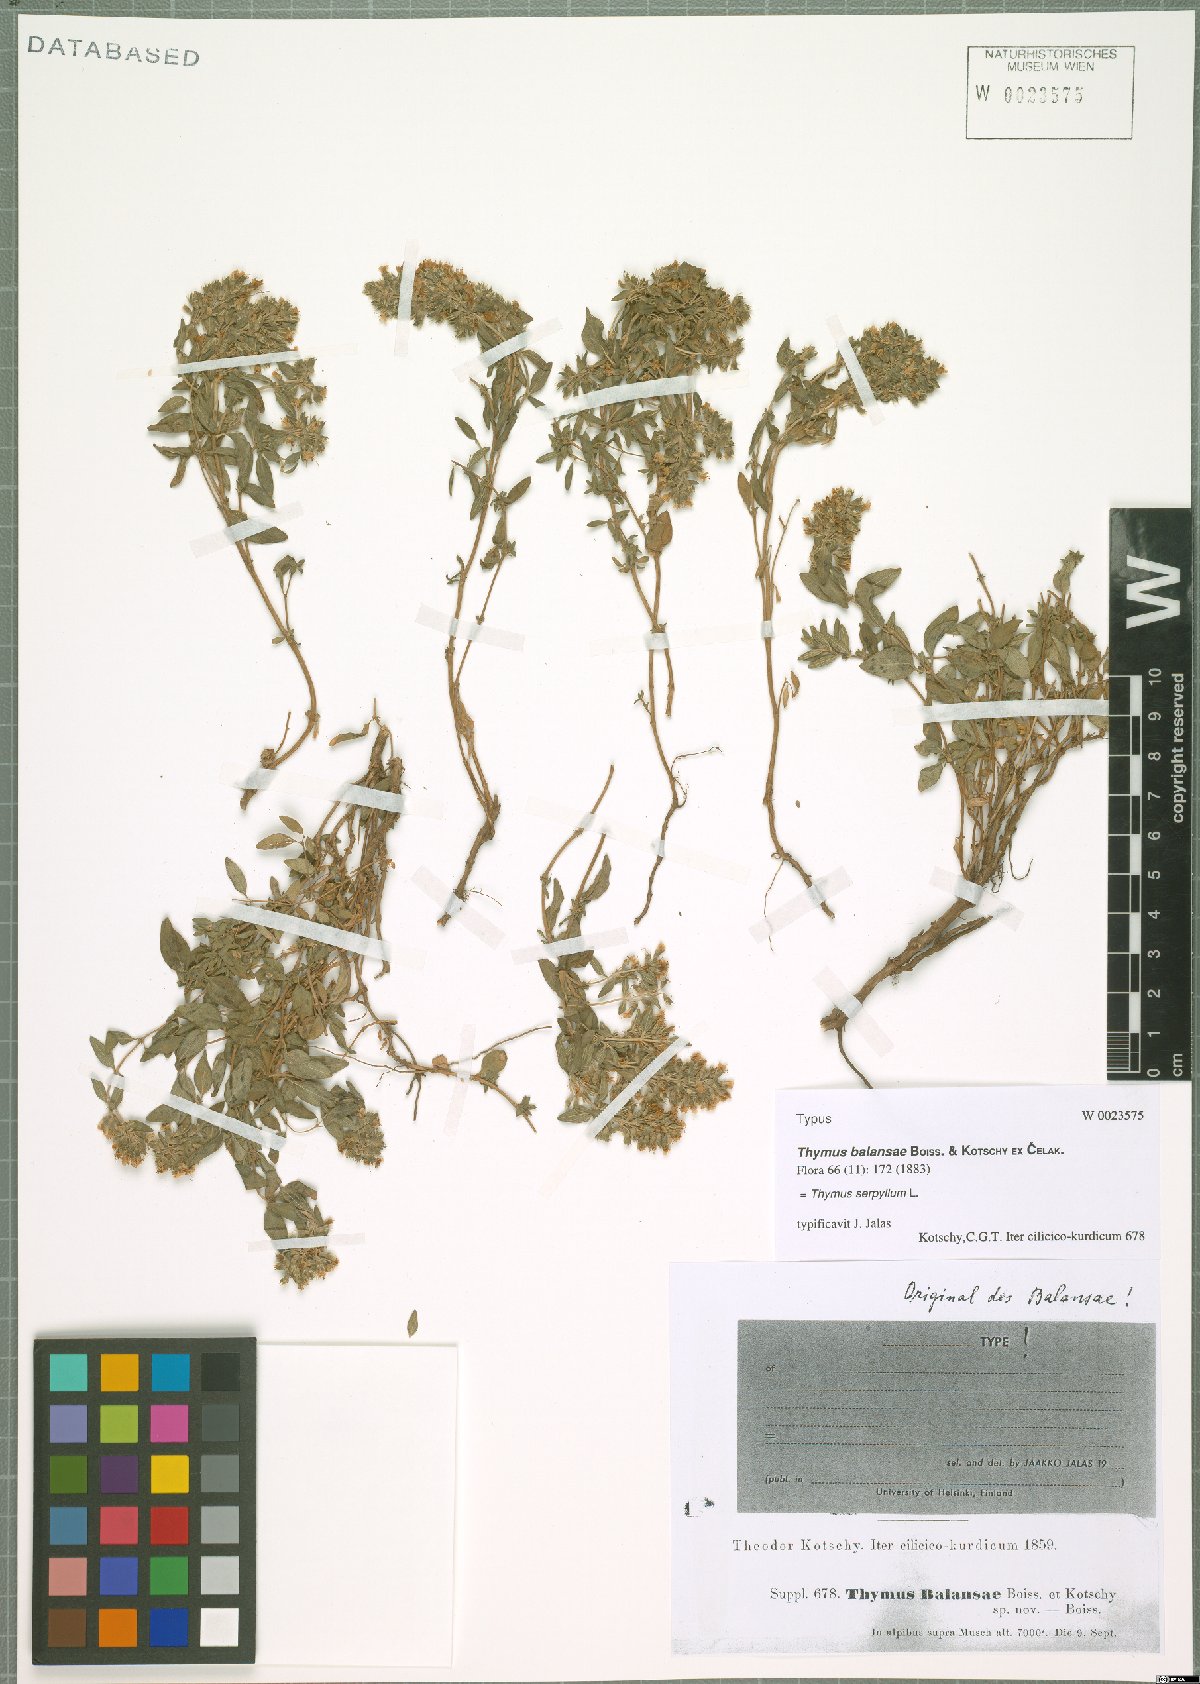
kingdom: Plantae
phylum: Tracheophyta
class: Magnoliopsida
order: Lamiales
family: Lamiaceae
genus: Thymus
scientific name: Thymus serpyllum
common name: Breckland thyme
